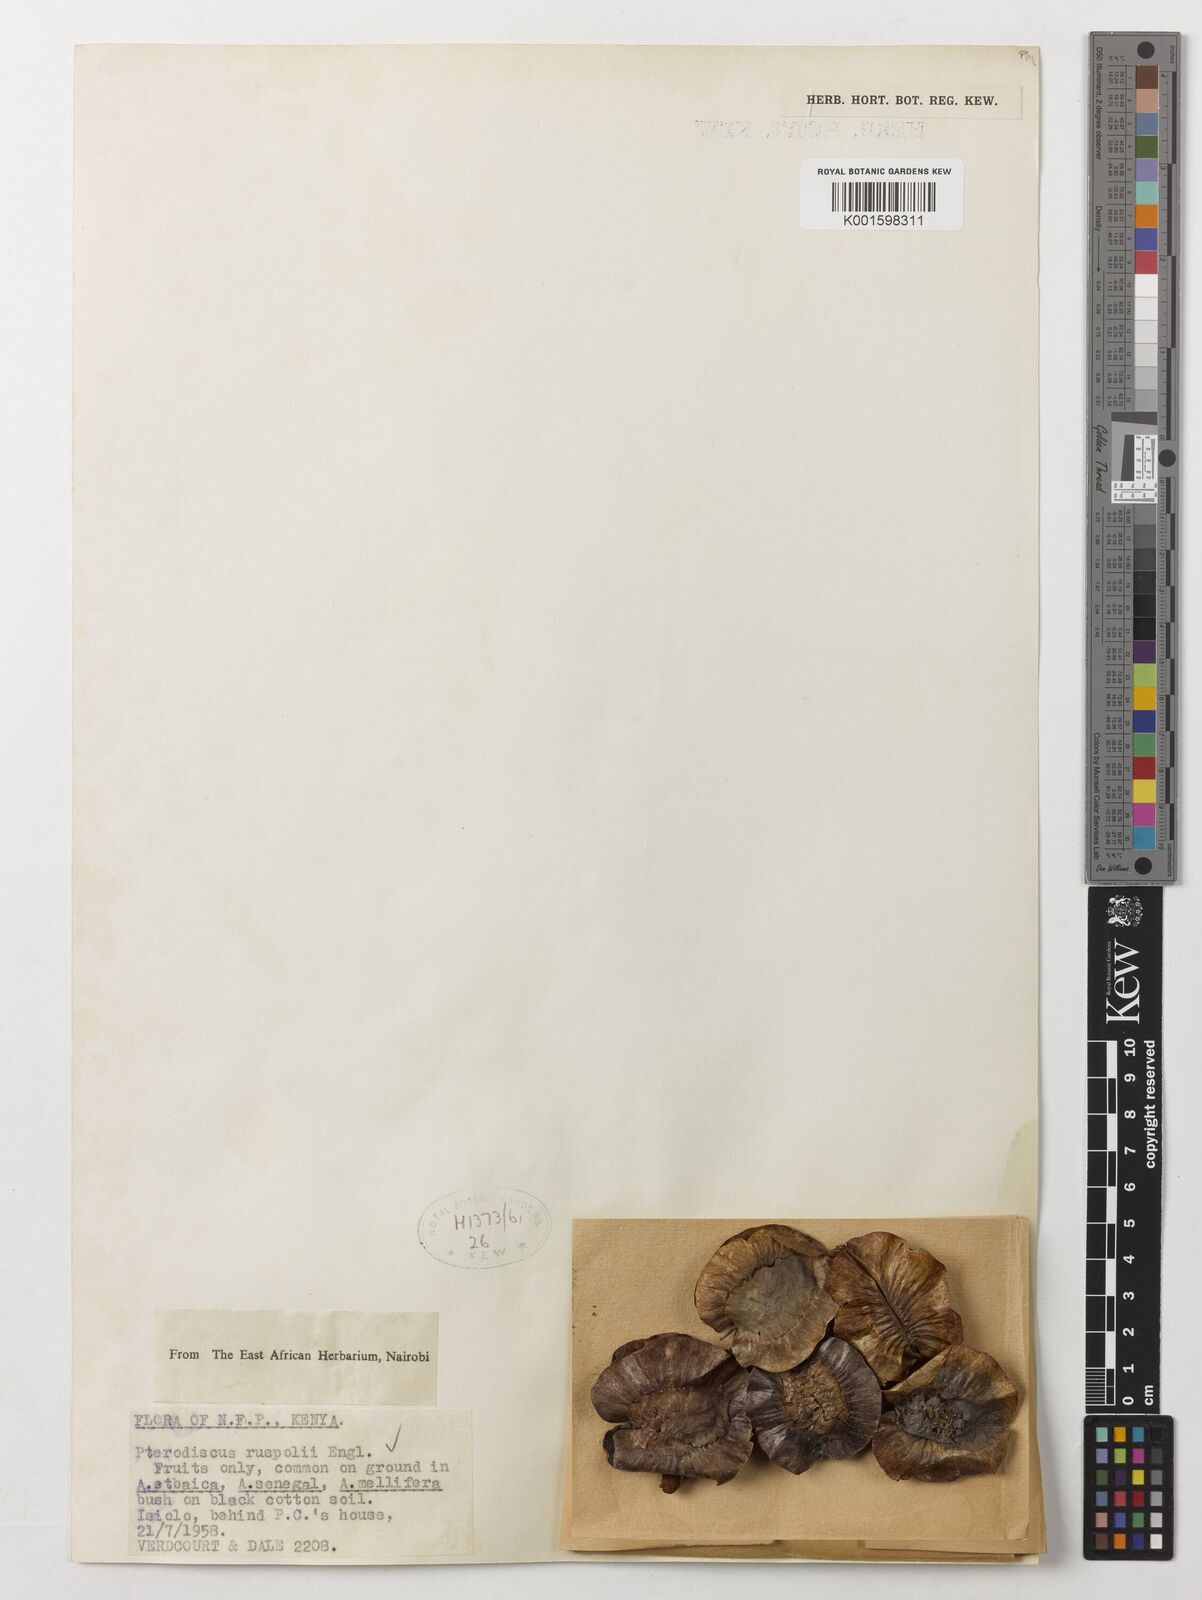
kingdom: Plantae
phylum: Tracheophyta
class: Magnoliopsida
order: Lamiales
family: Pedaliaceae
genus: Pterodiscus
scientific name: Pterodiscus ruspolii
